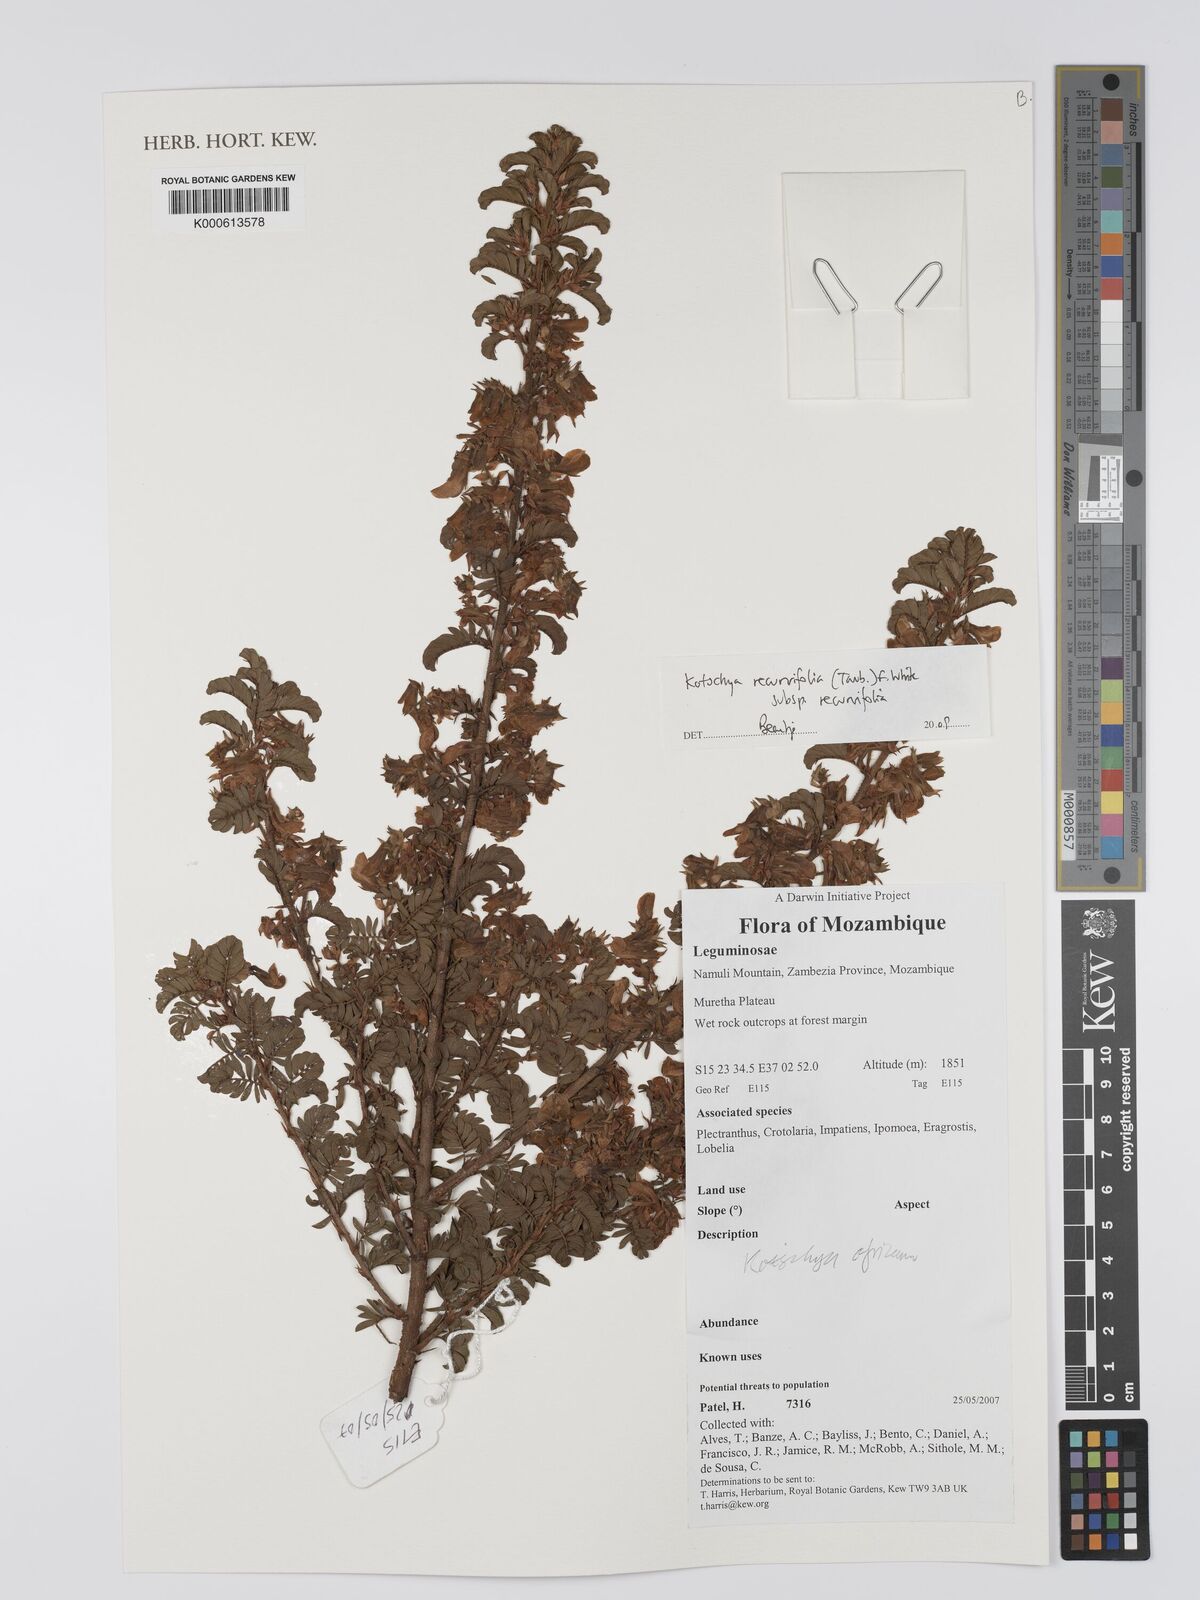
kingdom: Plantae
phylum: Tracheophyta
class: Magnoliopsida
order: Fabales
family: Fabaceae
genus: Kotschya
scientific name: Kotschya recurvifolia
